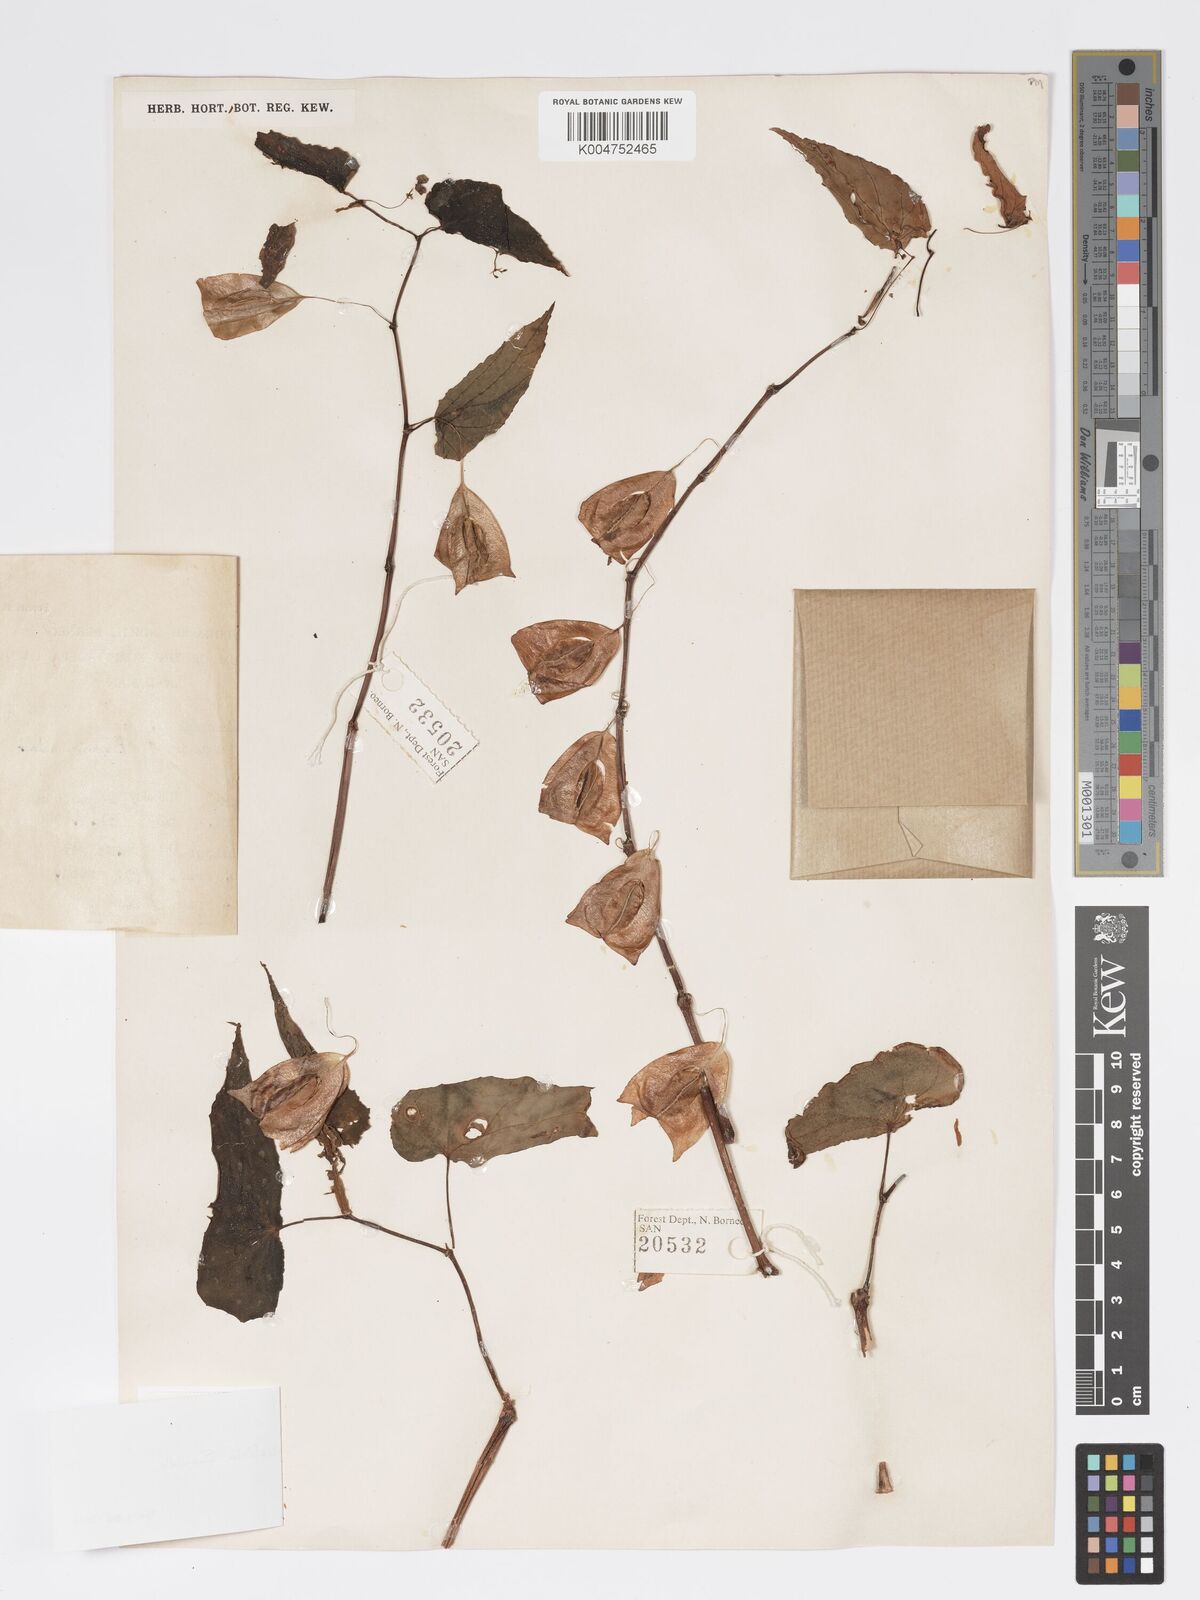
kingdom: Plantae
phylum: Tracheophyta
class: Magnoliopsida
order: Cucurbitales
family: Begoniaceae
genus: Begonia
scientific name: Begonia malachosticta
